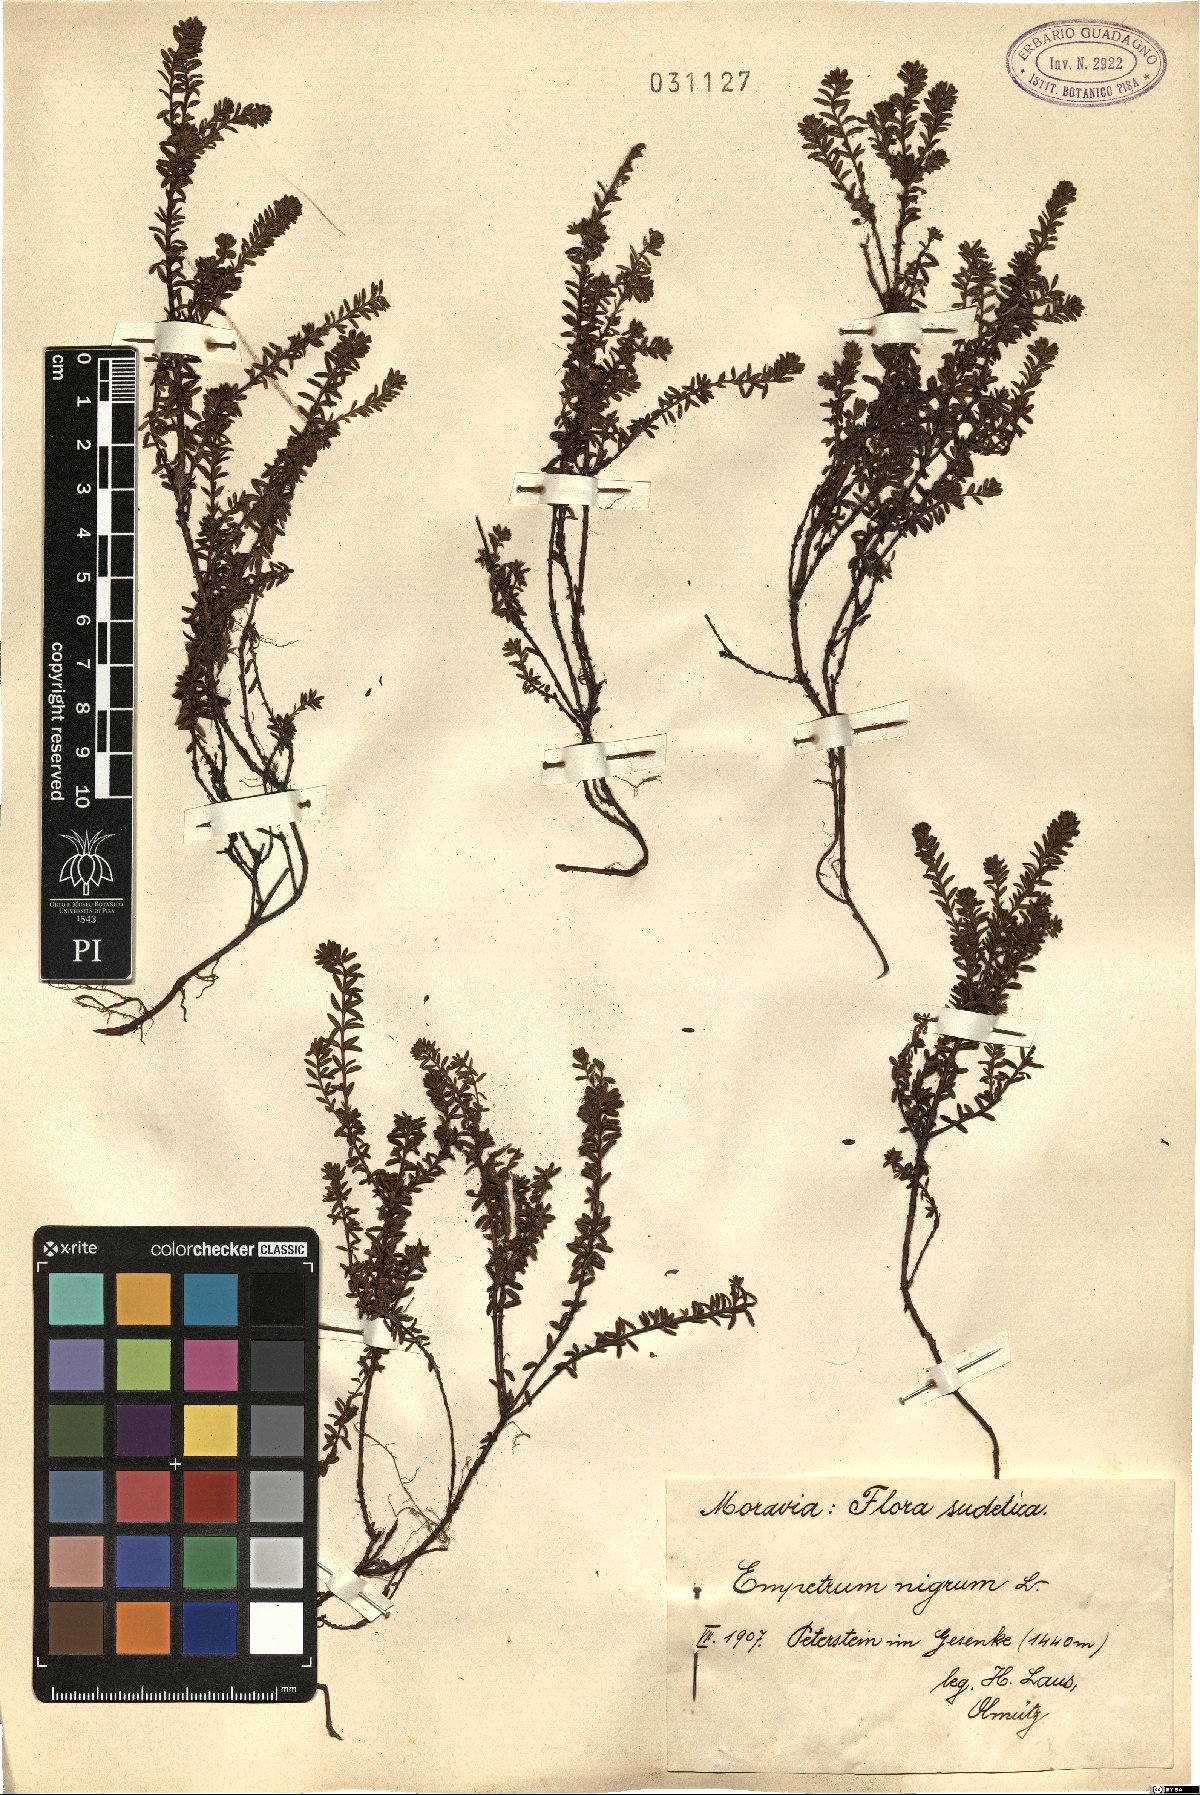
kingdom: Plantae
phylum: Tracheophyta
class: Magnoliopsida
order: Ericales
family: Ericaceae
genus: Empetrum
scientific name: Empetrum nigrum
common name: Black crowberry
